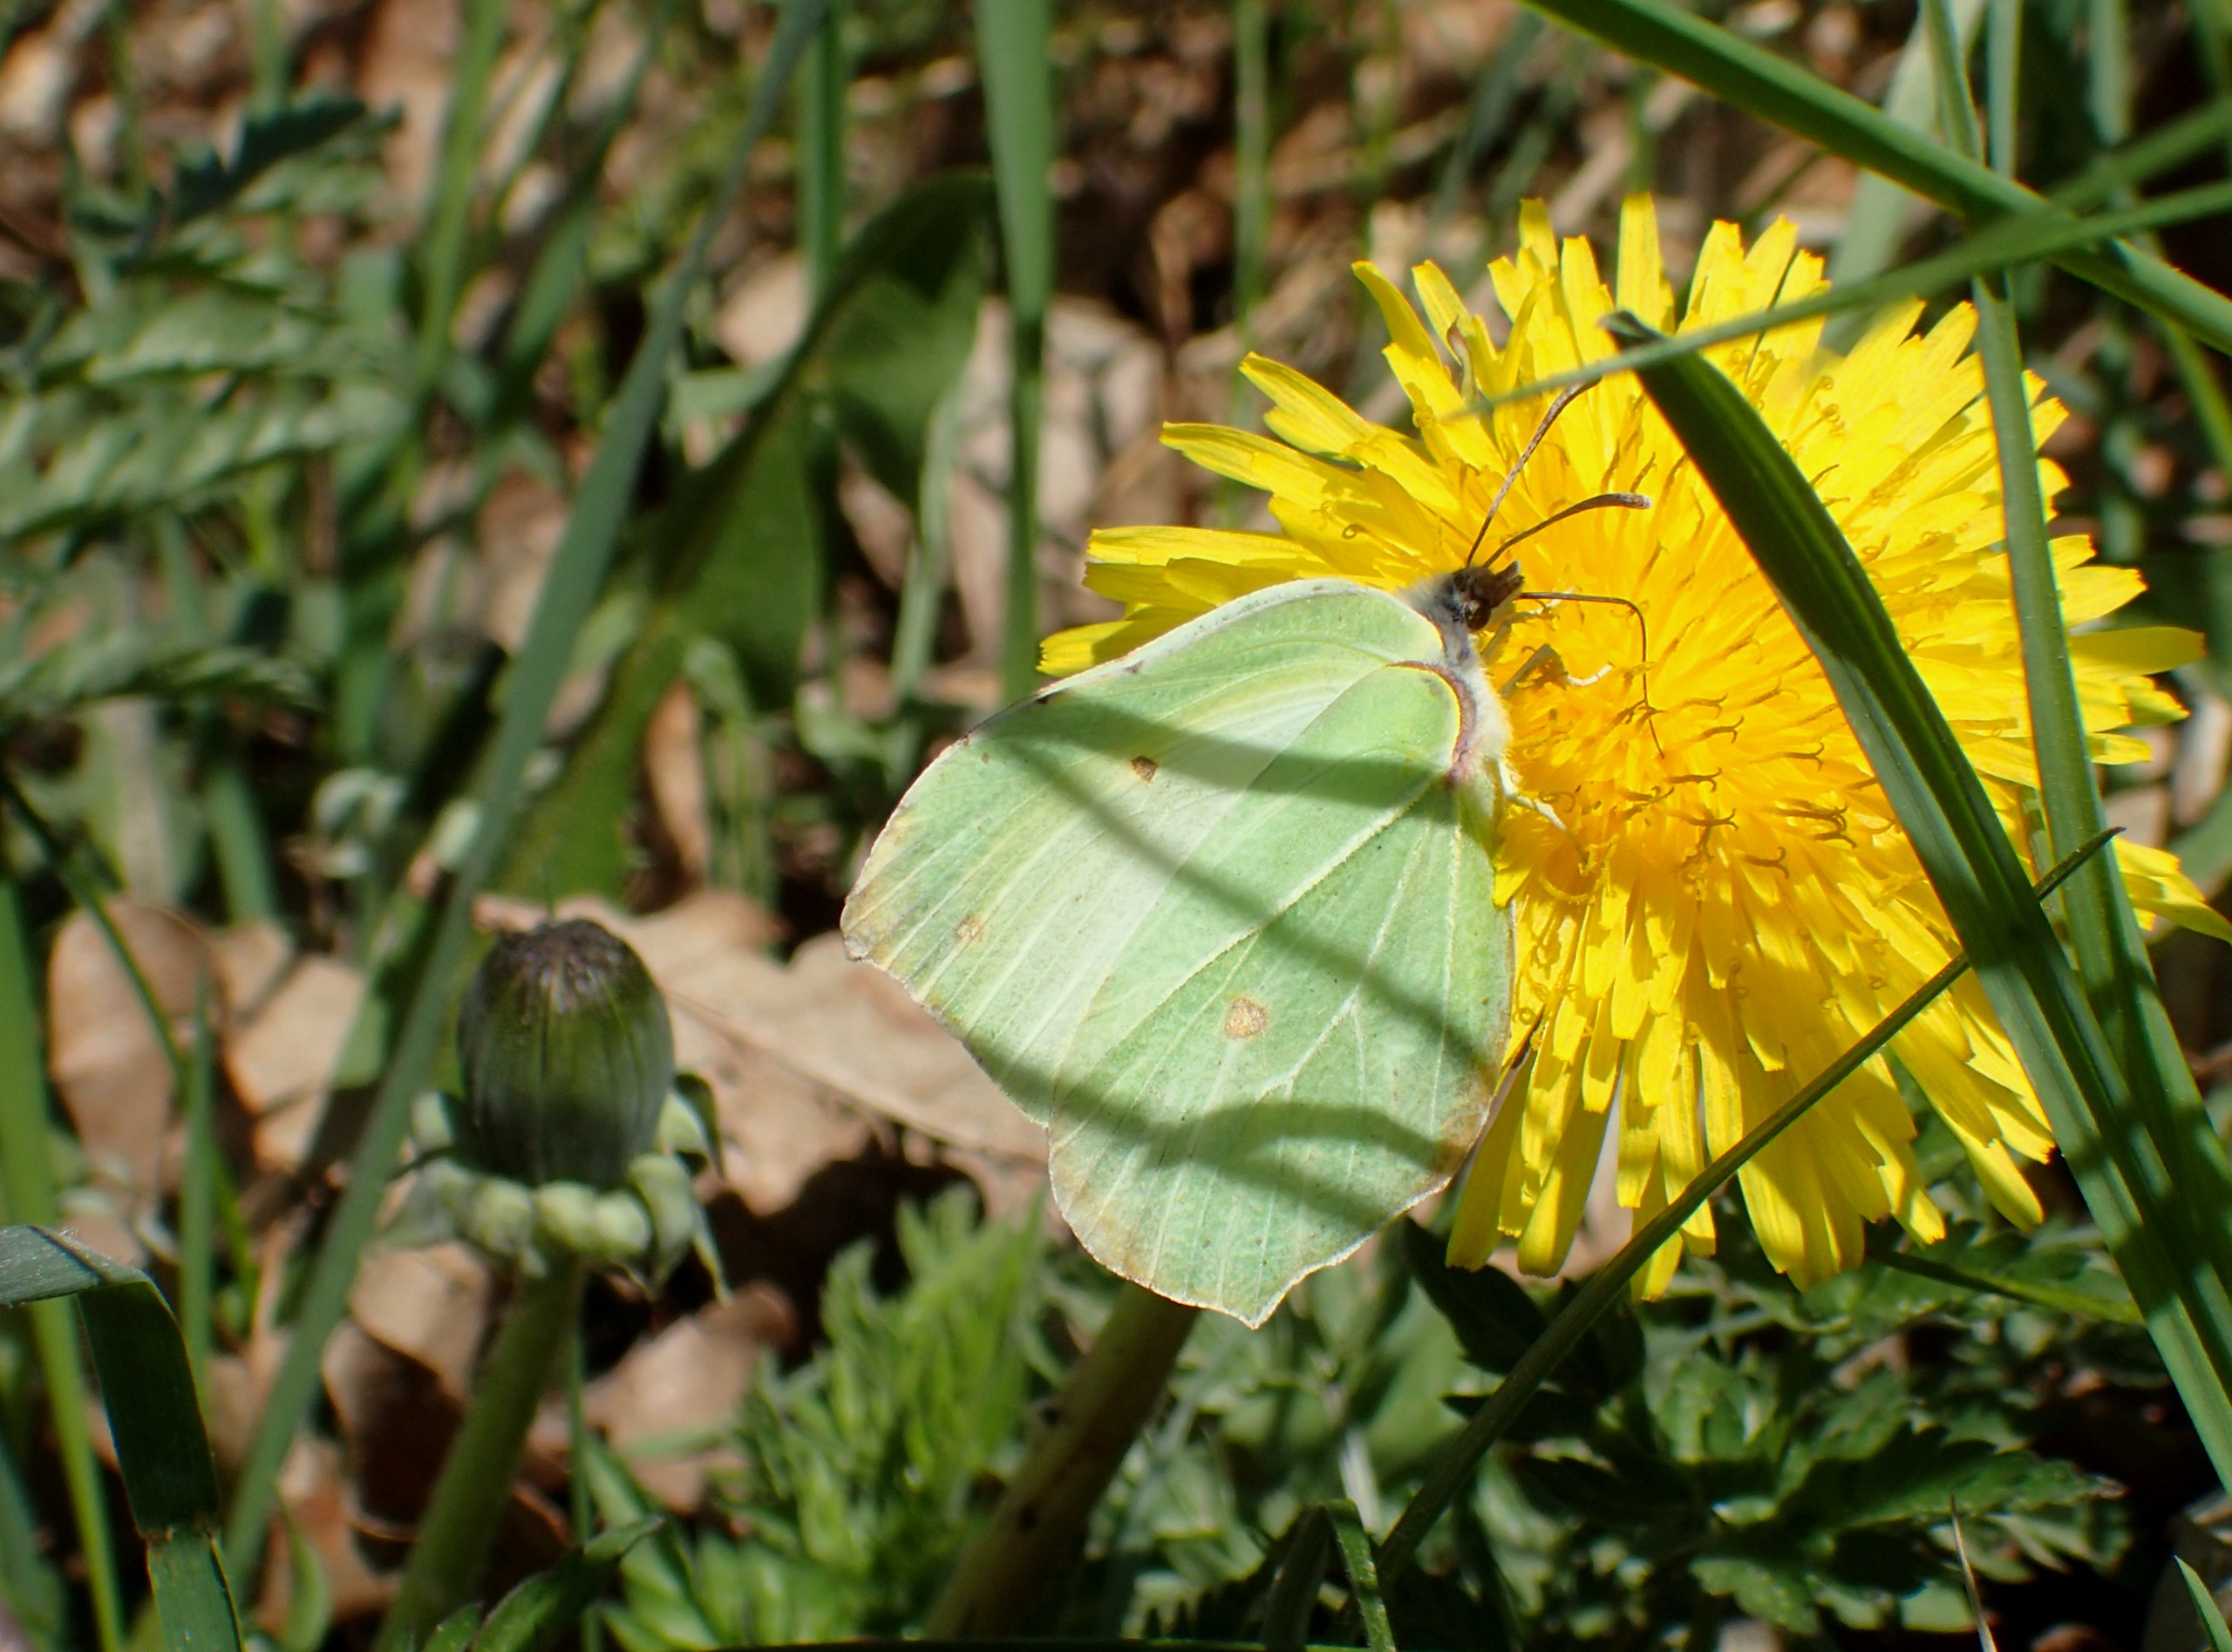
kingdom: Animalia
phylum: Arthropoda
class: Insecta
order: Lepidoptera
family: Pieridae
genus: Gonepteryx
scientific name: Gonepteryx rhamni
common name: Citronsommerfugl
